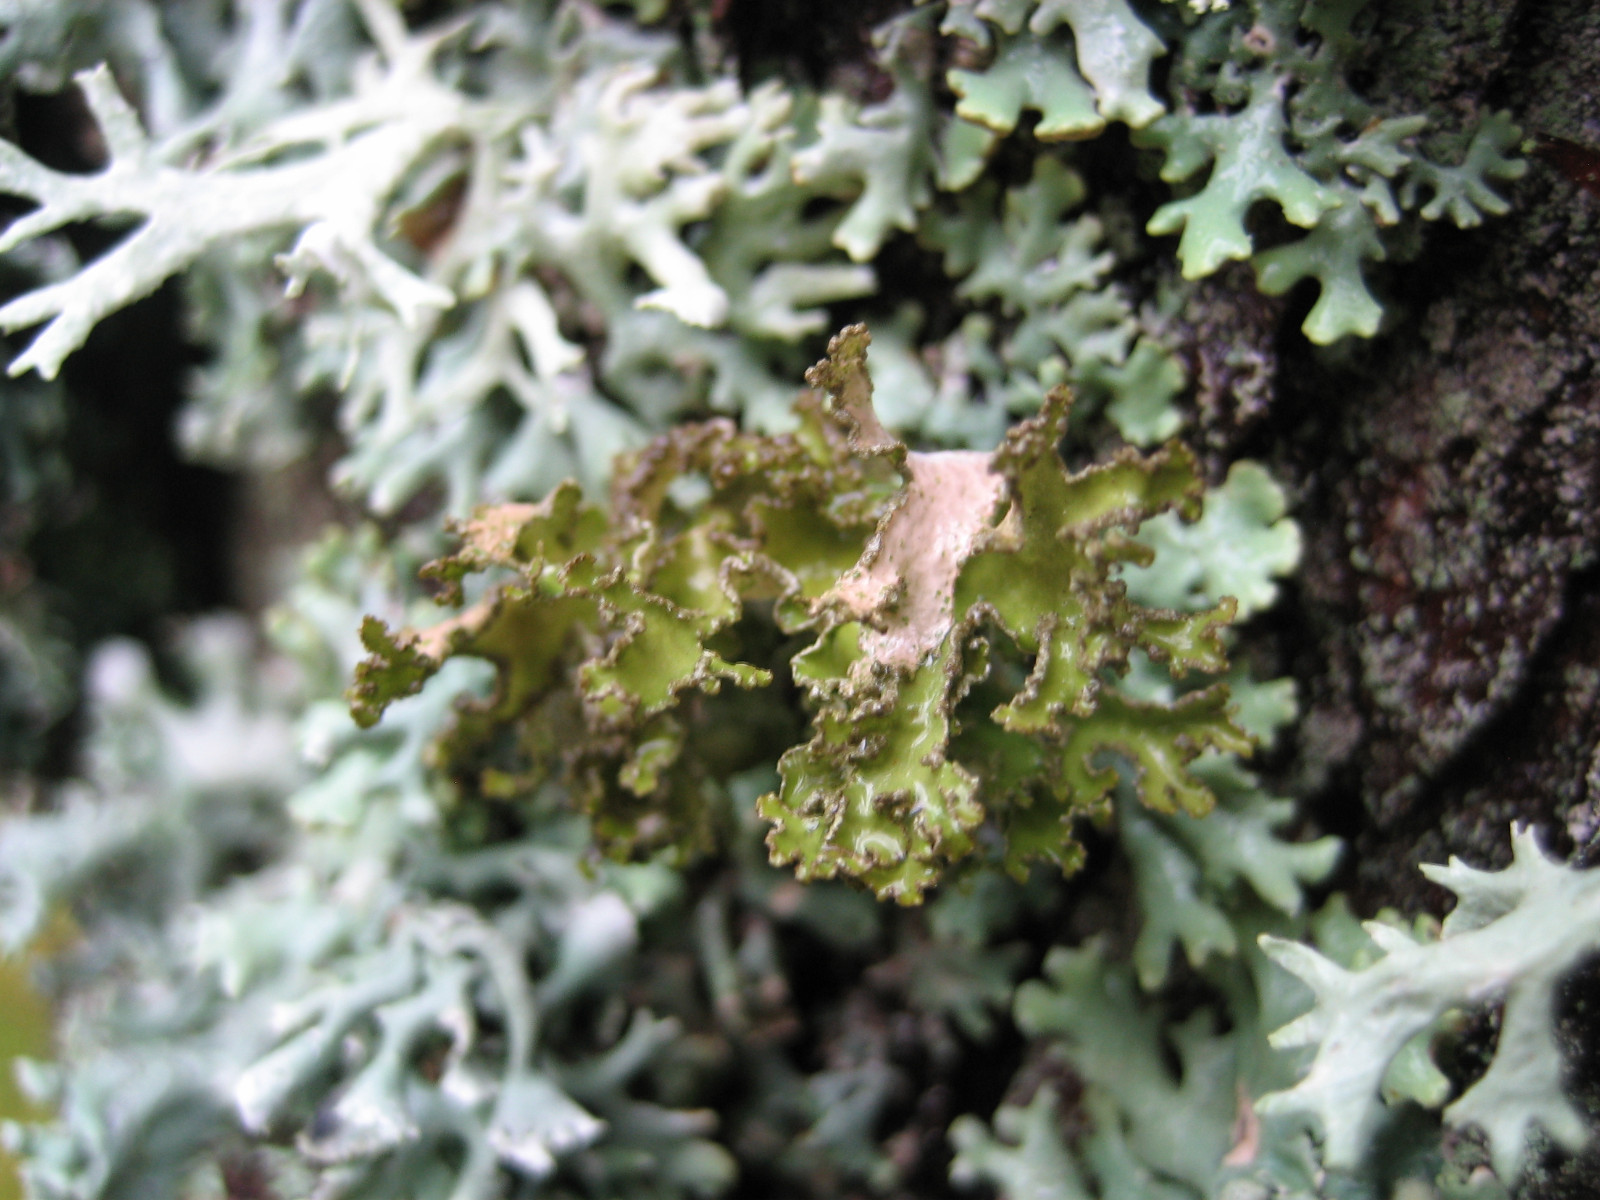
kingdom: Fungi
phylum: Ascomycota
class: Lecanoromycetes
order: Lecanorales
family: Parmeliaceae
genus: Nephromopsis
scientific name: Nephromopsis chlorophylla
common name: olivenbrun kruslav
